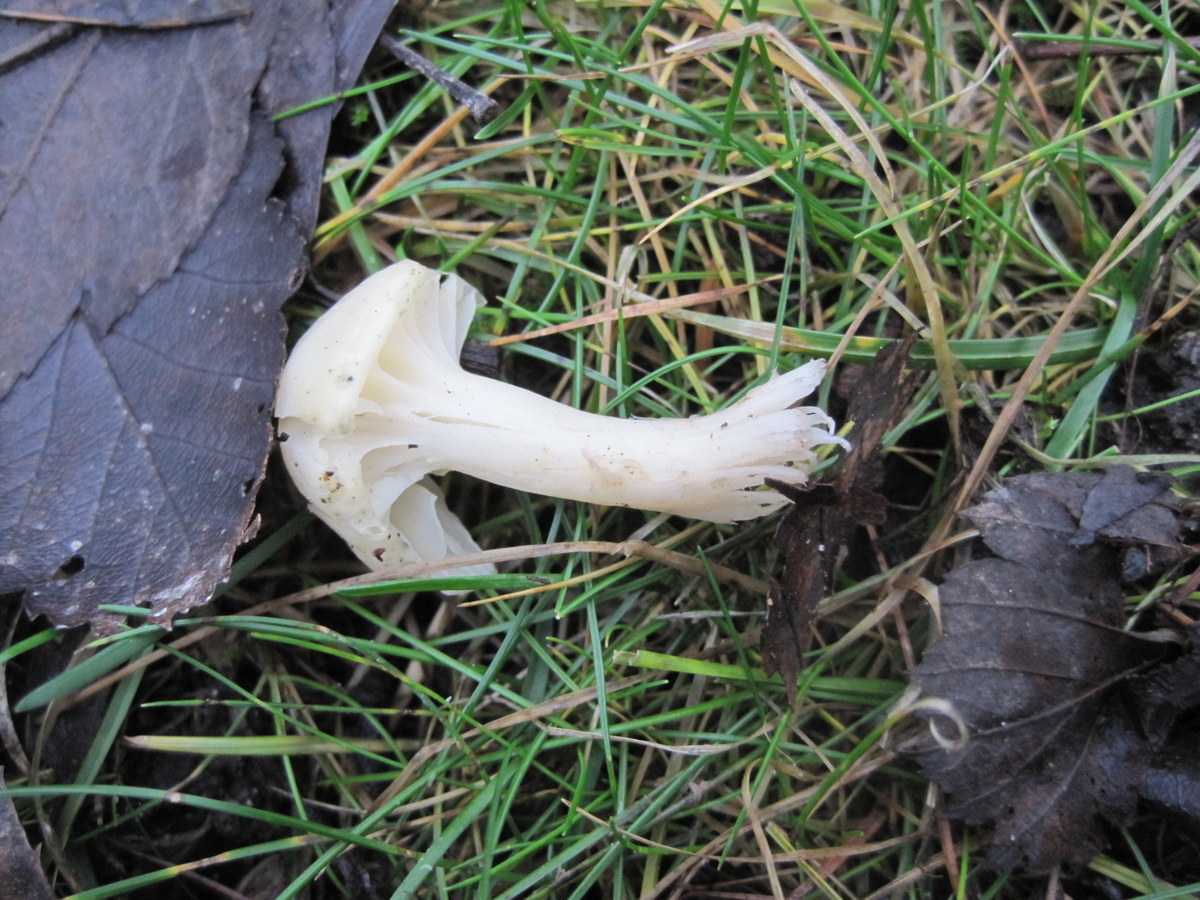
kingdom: Fungi
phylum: Basidiomycota
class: Agaricomycetes
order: Agaricales
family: Hygrophoraceae
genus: Cuphophyllus
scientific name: Cuphophyllus virgineus
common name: snehvid vokshat
